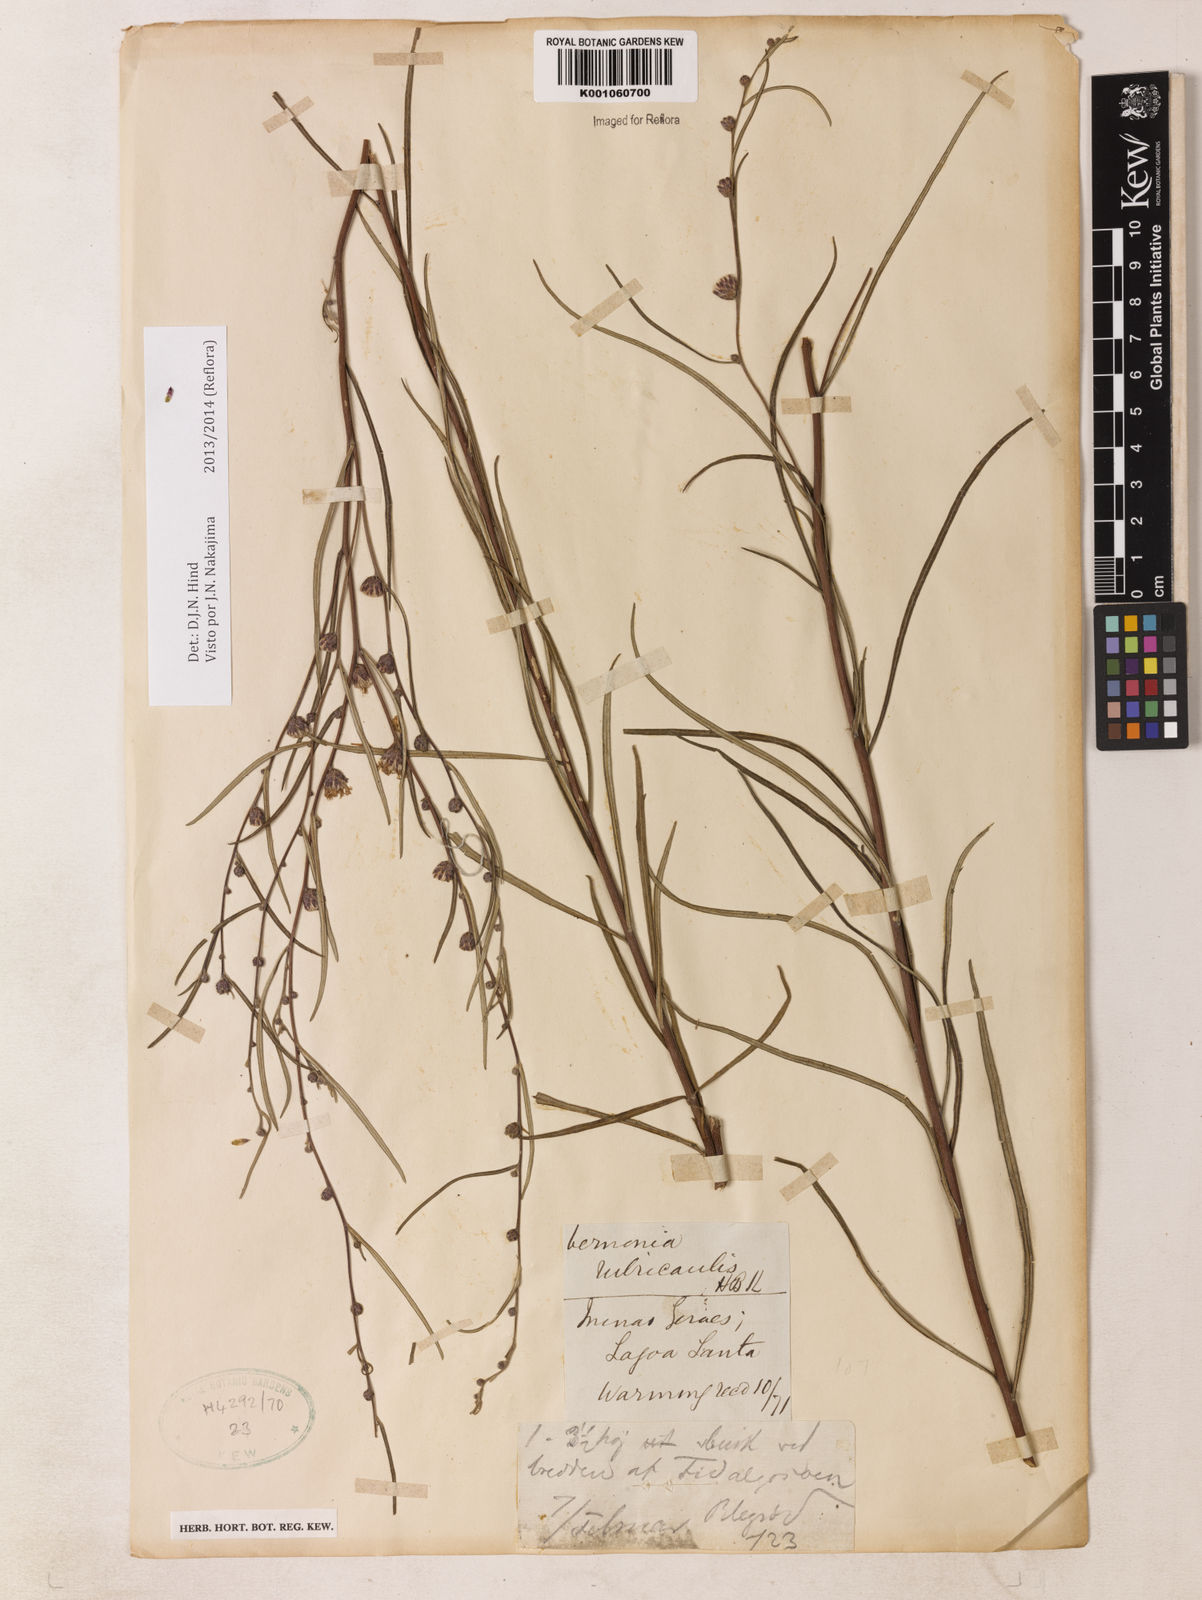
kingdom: Plantae
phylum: Tracheophyta
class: Magnoliopsida
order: Asterales
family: Asteraceae
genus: Lessingianthus
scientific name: Lessingianthus rubricaulis
